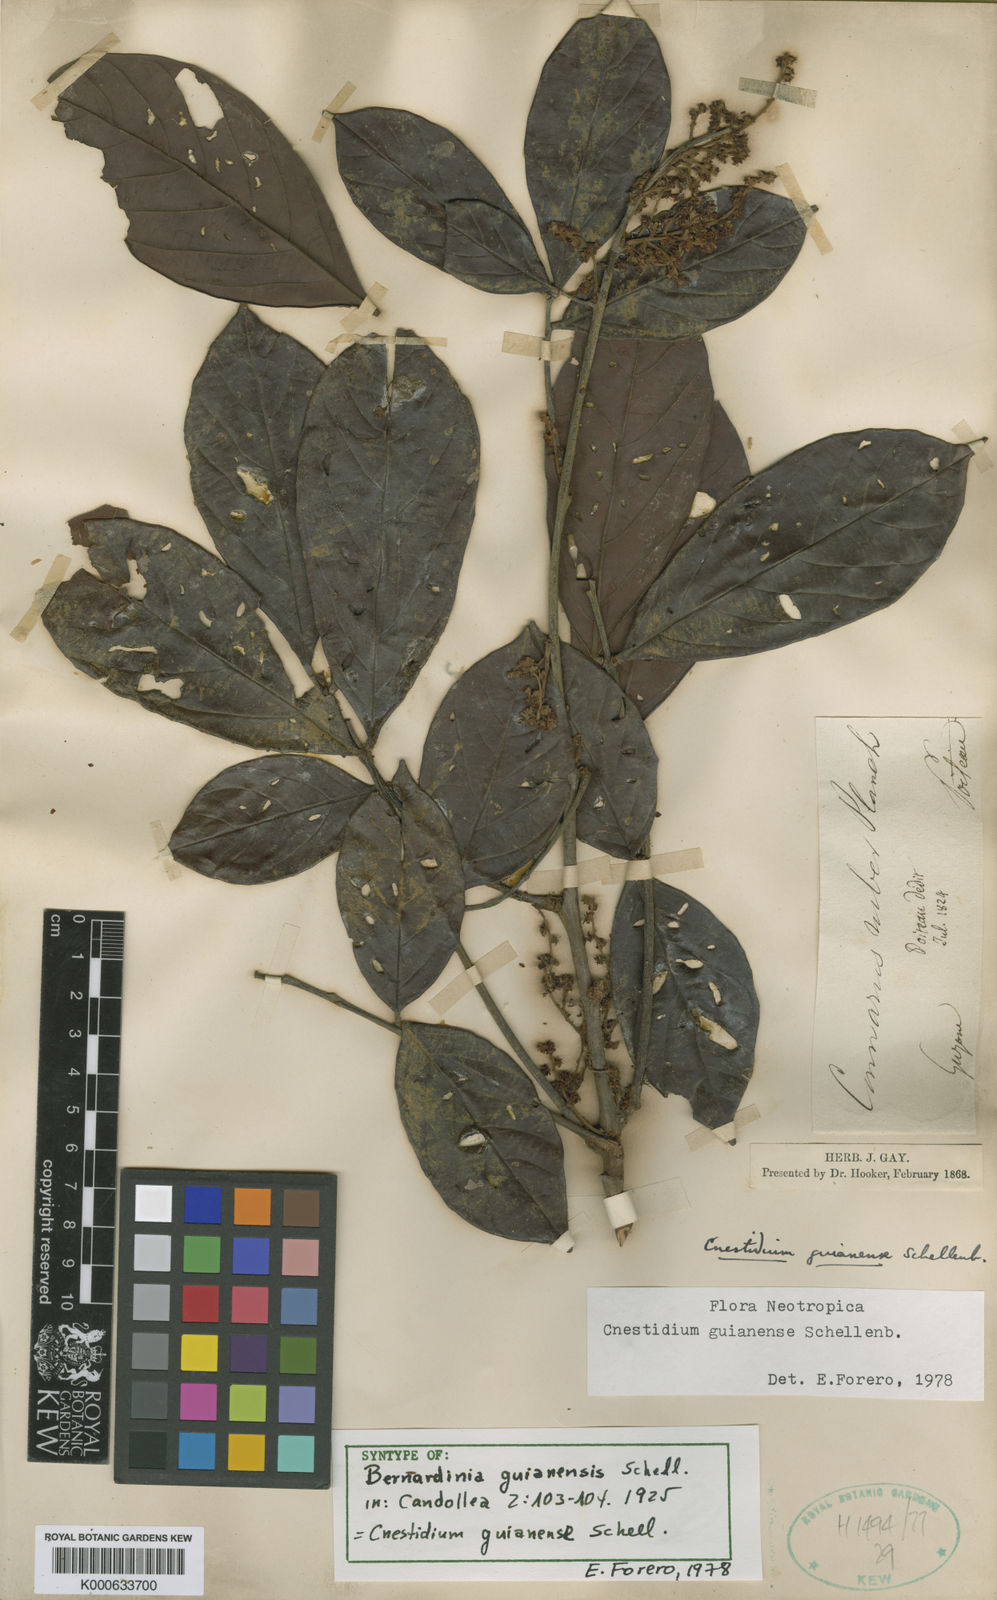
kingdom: Plantae
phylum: Tracheophyta
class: Magnoliopsida
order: Oxalidales
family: Connaraceae
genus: Cnestidium
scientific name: Cnestidium guianense
